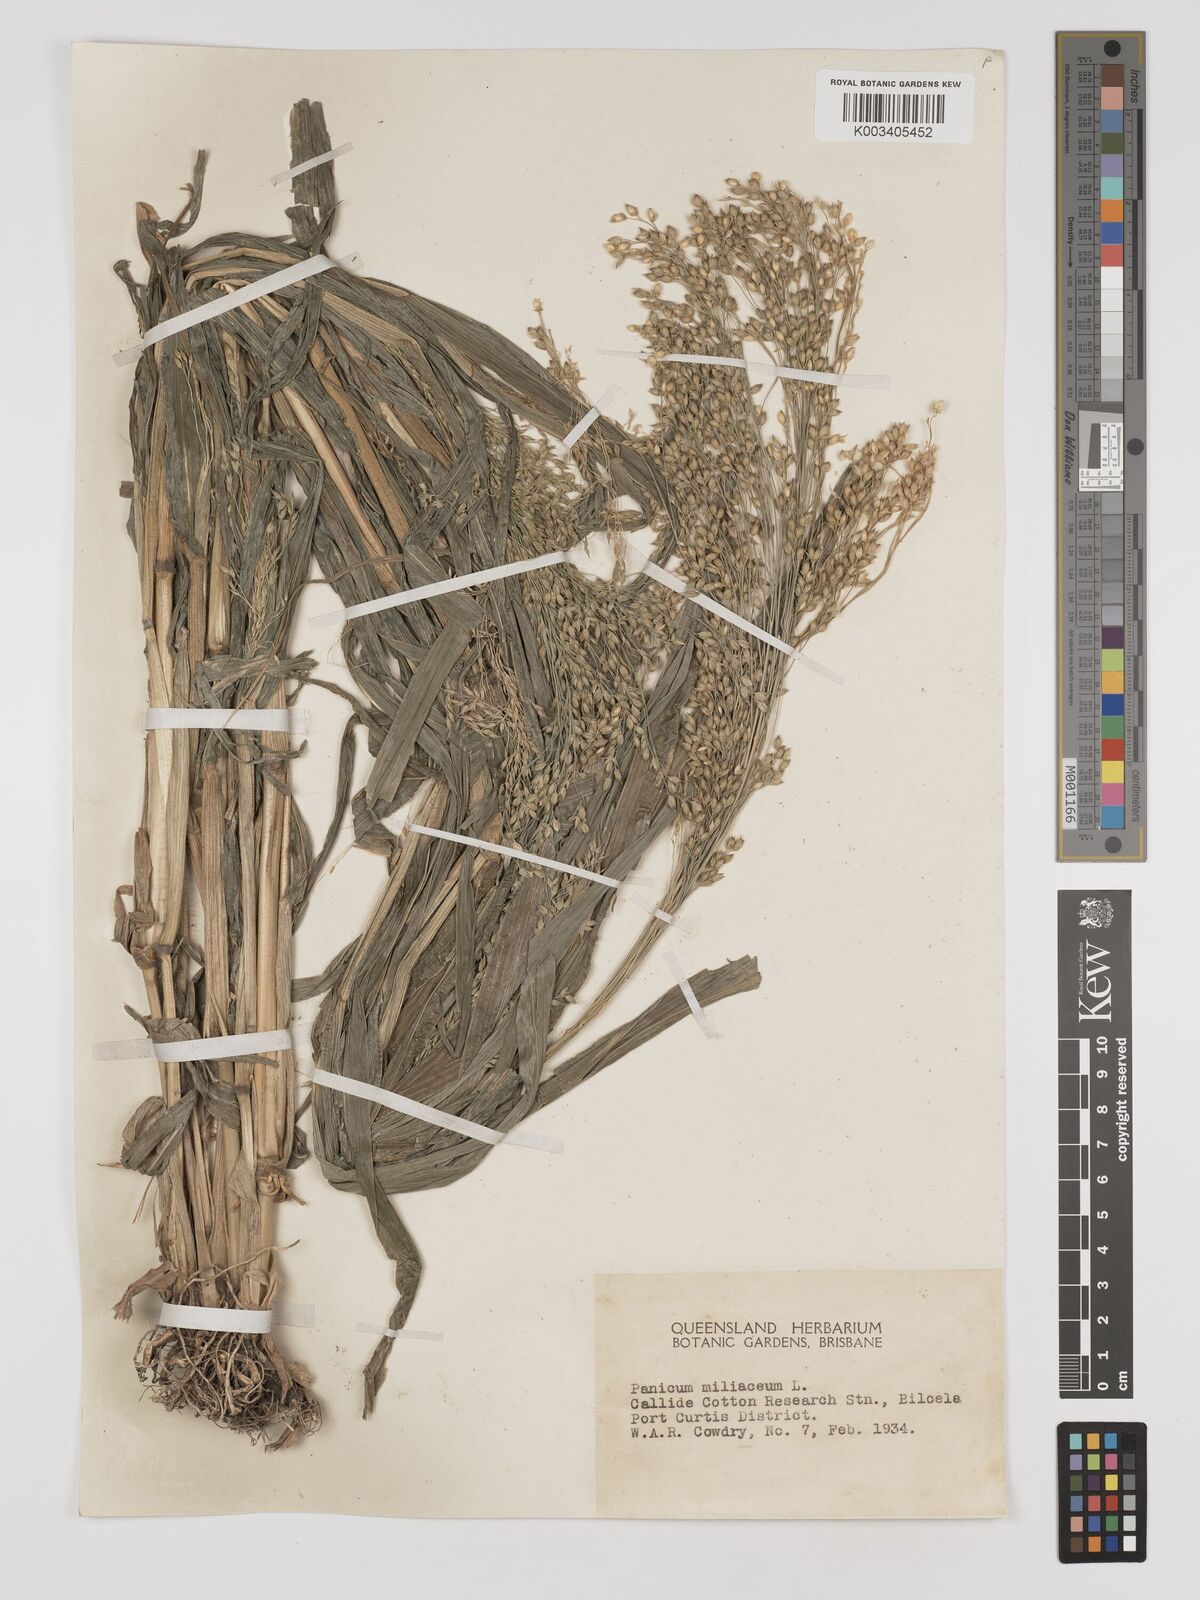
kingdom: Plantae
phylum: Tracheophyta
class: Liliopsida
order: Poales
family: Poaceae
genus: Panicum
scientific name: Panicum miliaceum
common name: Common millet
